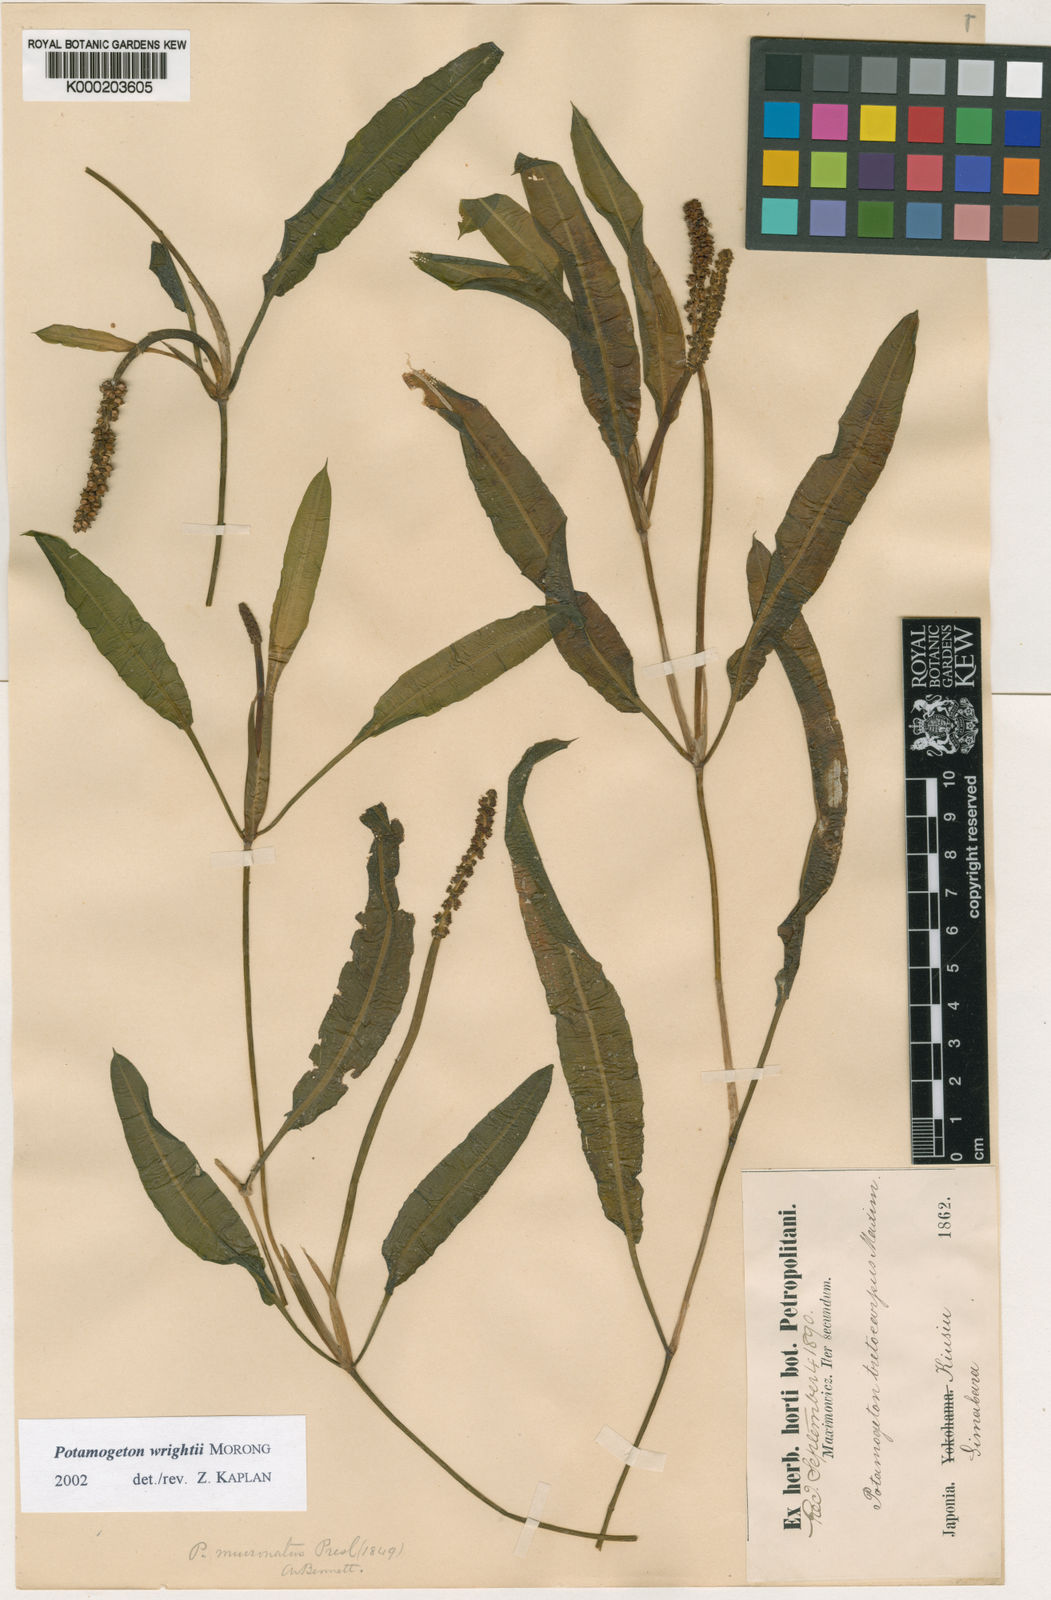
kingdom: Plantae
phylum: Tracheophyta
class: Liliopsida
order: Alismatales
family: Potamogetonaceae
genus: Potamogeton
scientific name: Potamogeton wrightii
